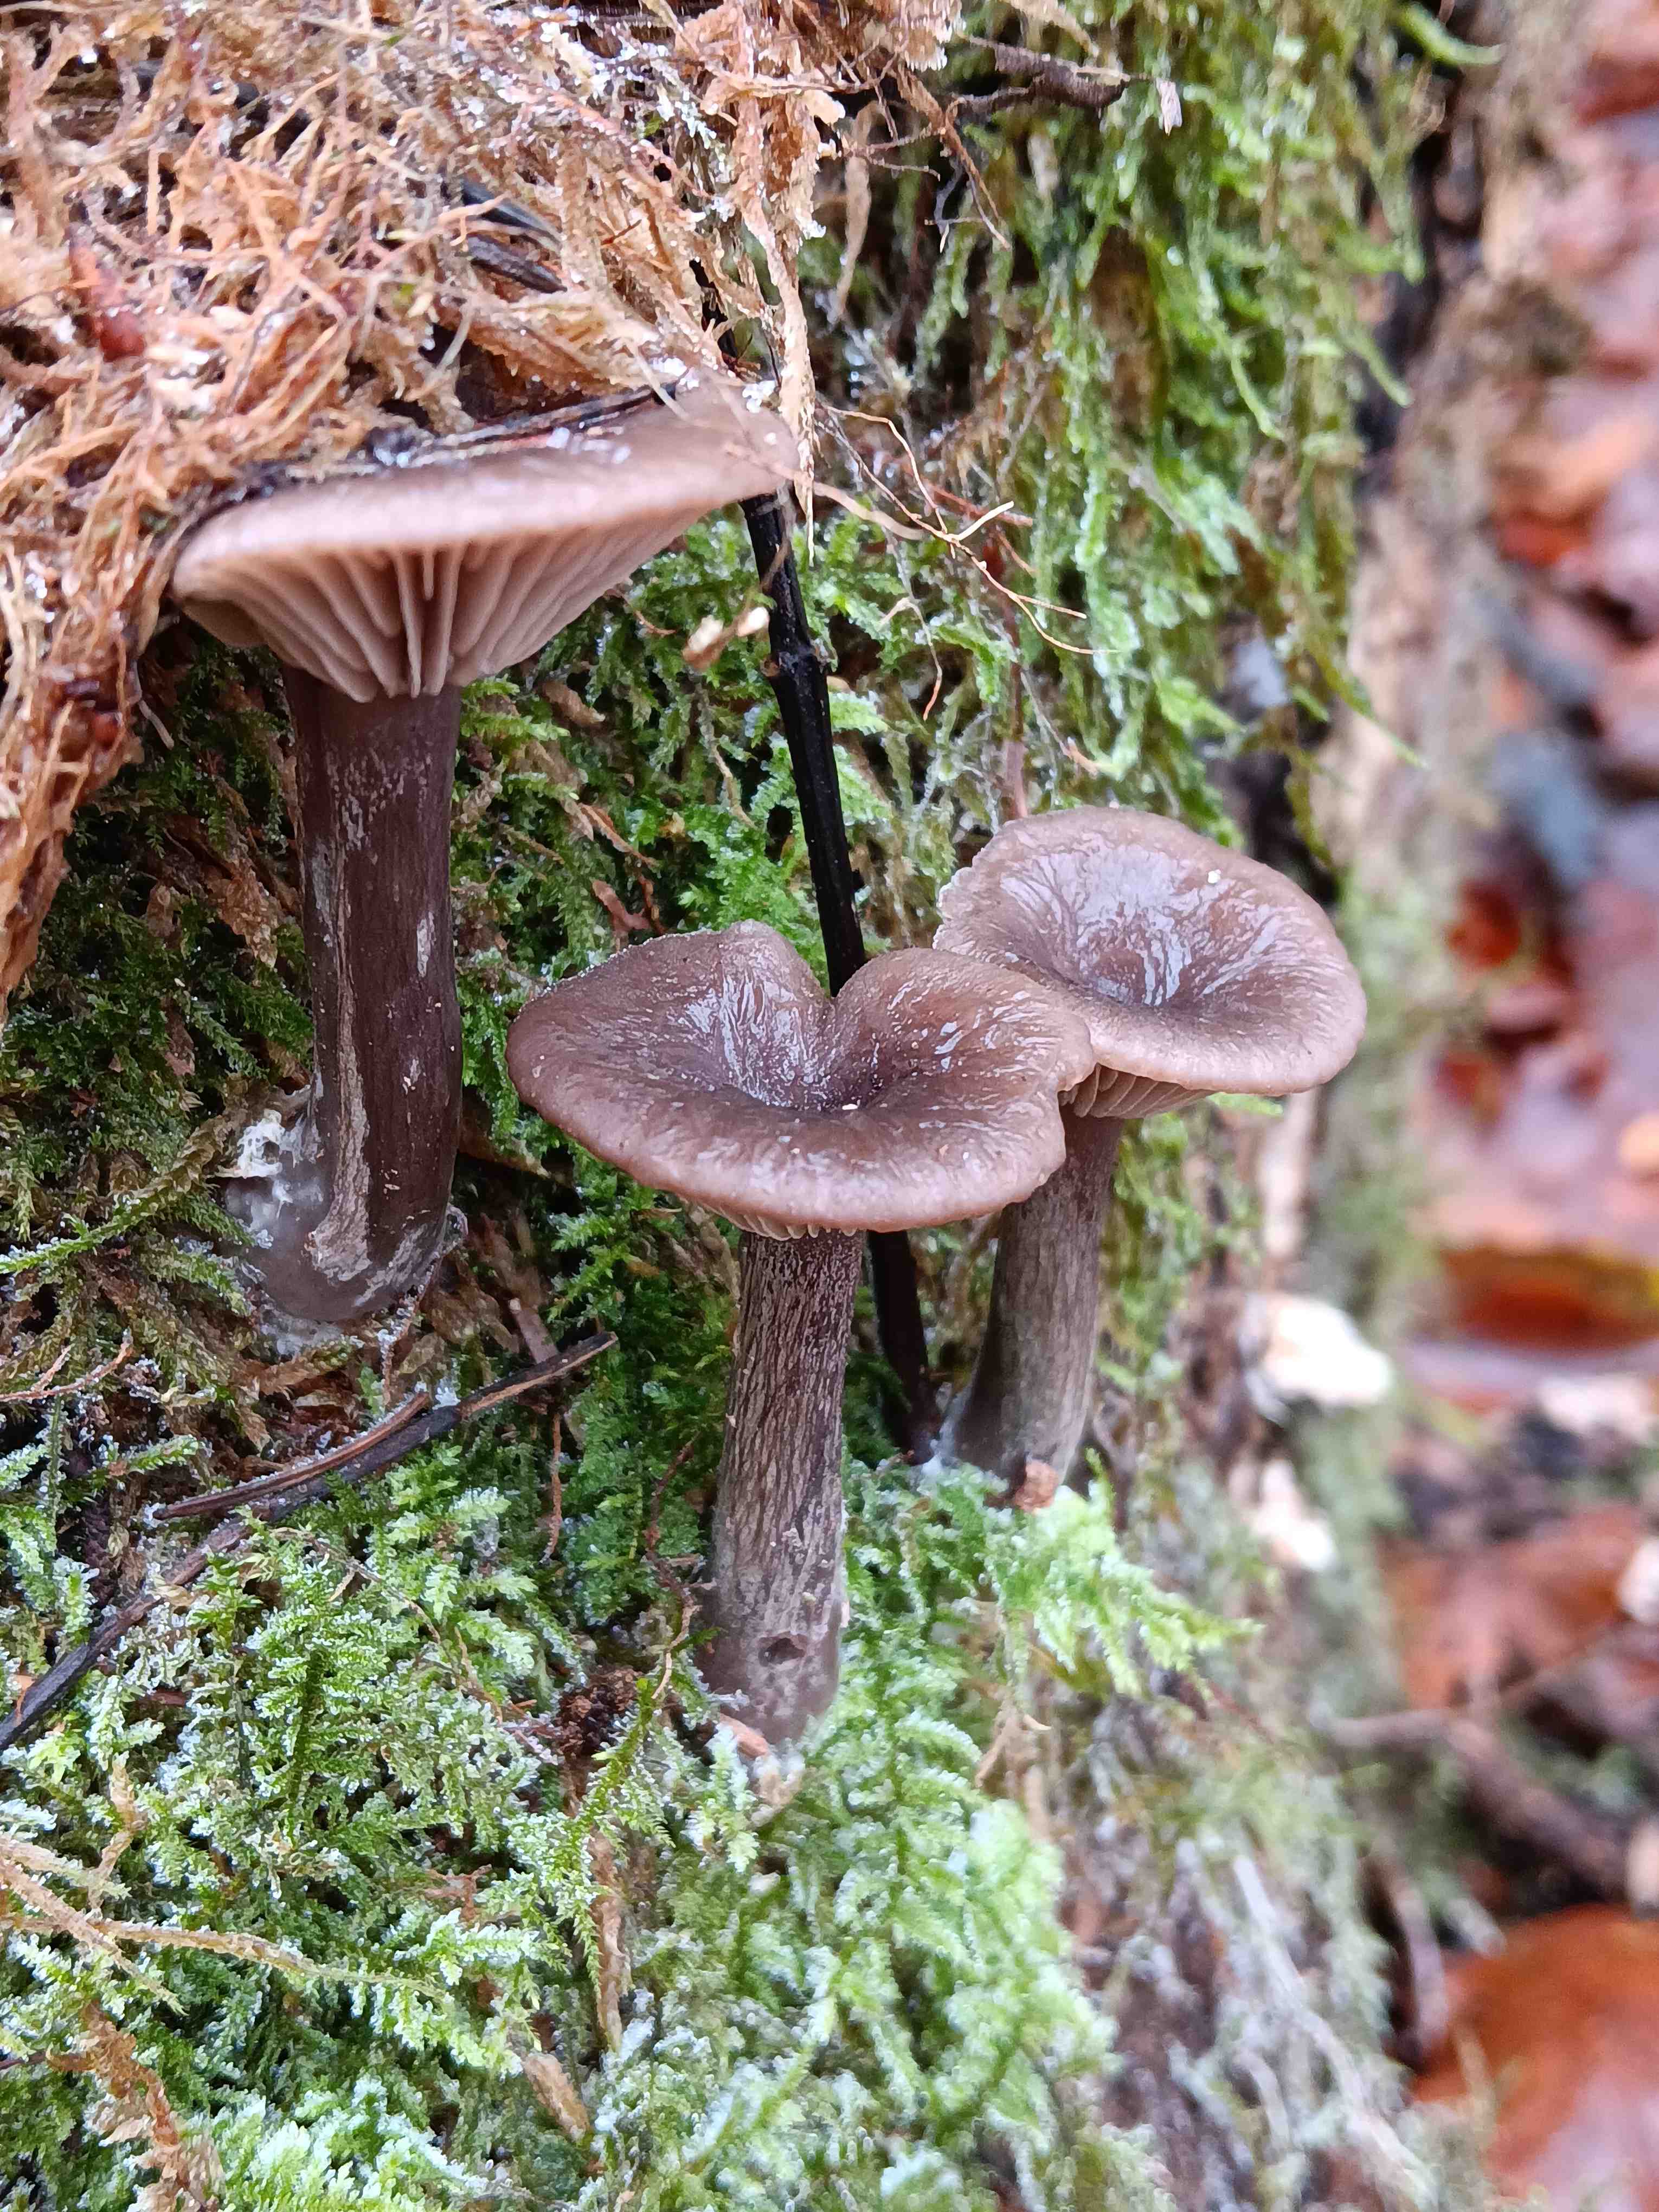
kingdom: Fungi
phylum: Basidiomycota
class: Agaricomycetes
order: Agaricales
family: Pseudoclitocybaceae
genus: Pseudoclitocybe
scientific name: Pseudoclitocybe cyathiformis
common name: almindelig bægertragthat
